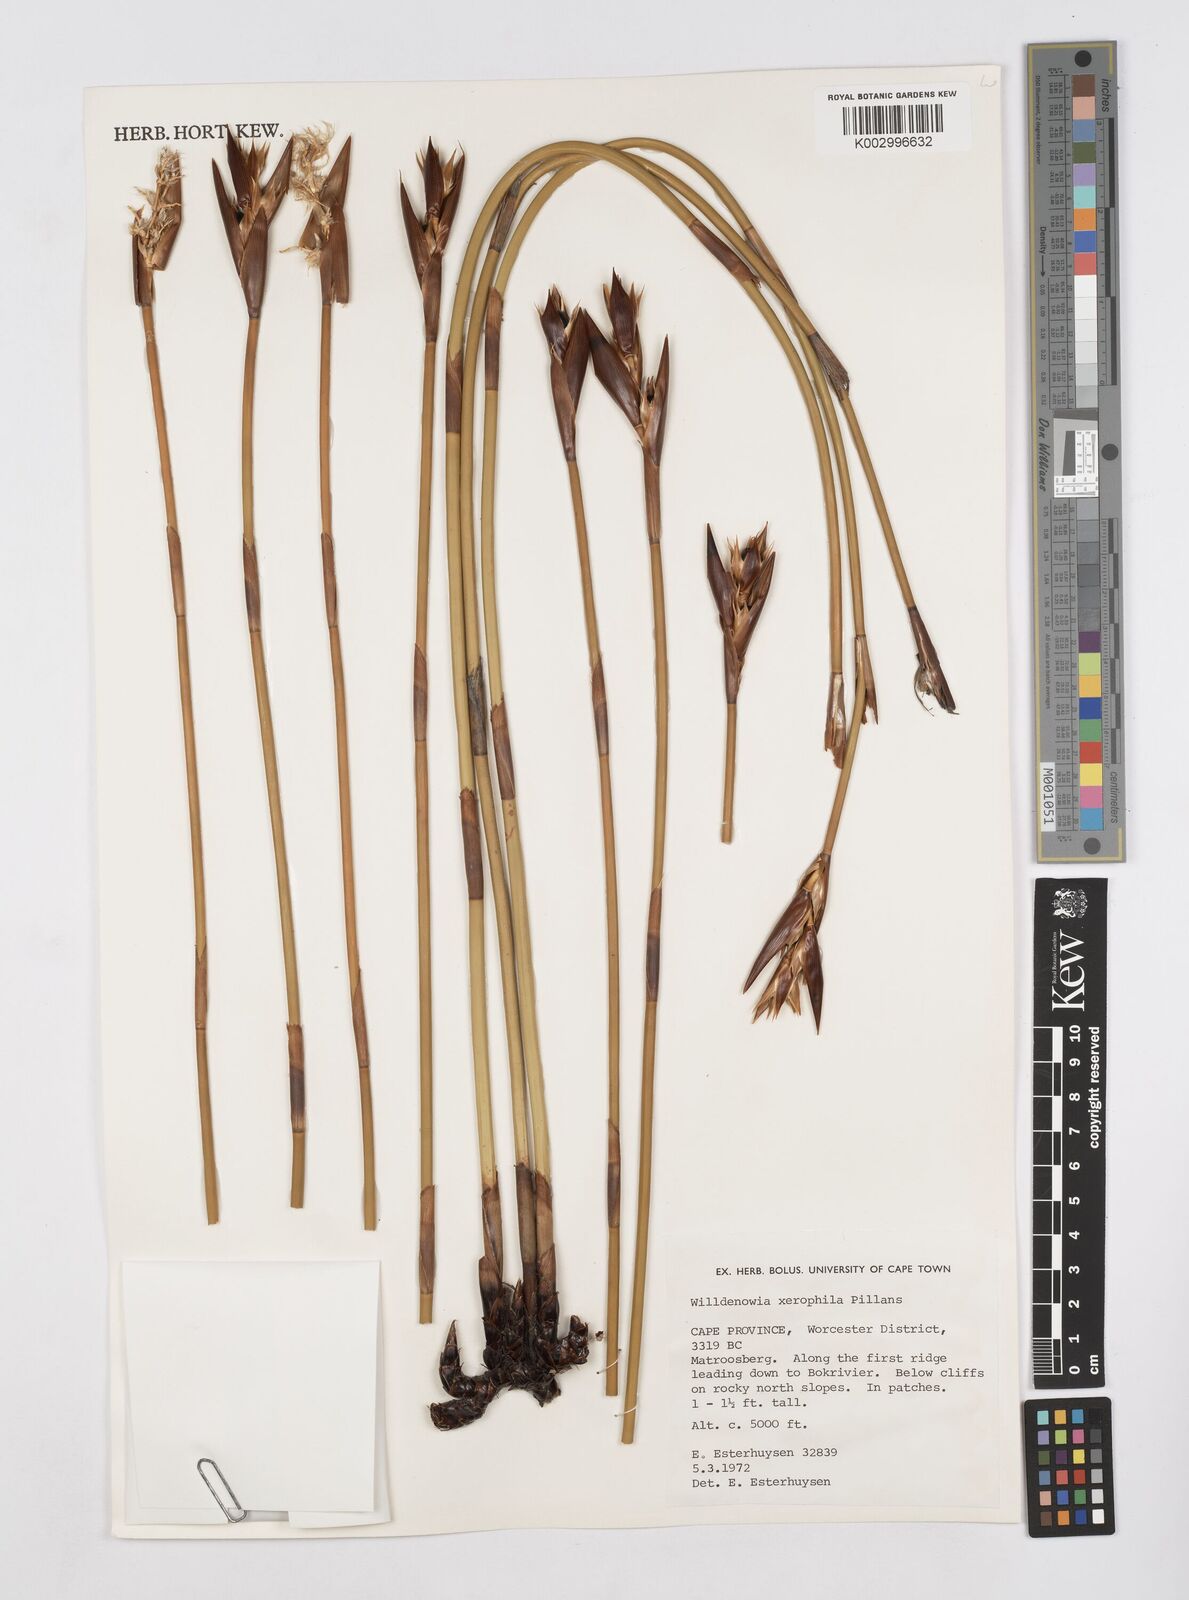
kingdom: Plantae
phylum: Tracheophyta
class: Liliopsida
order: Poales
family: Restionaceae
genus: Ceratocaryum
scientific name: Ceratocaryum xerophilum
